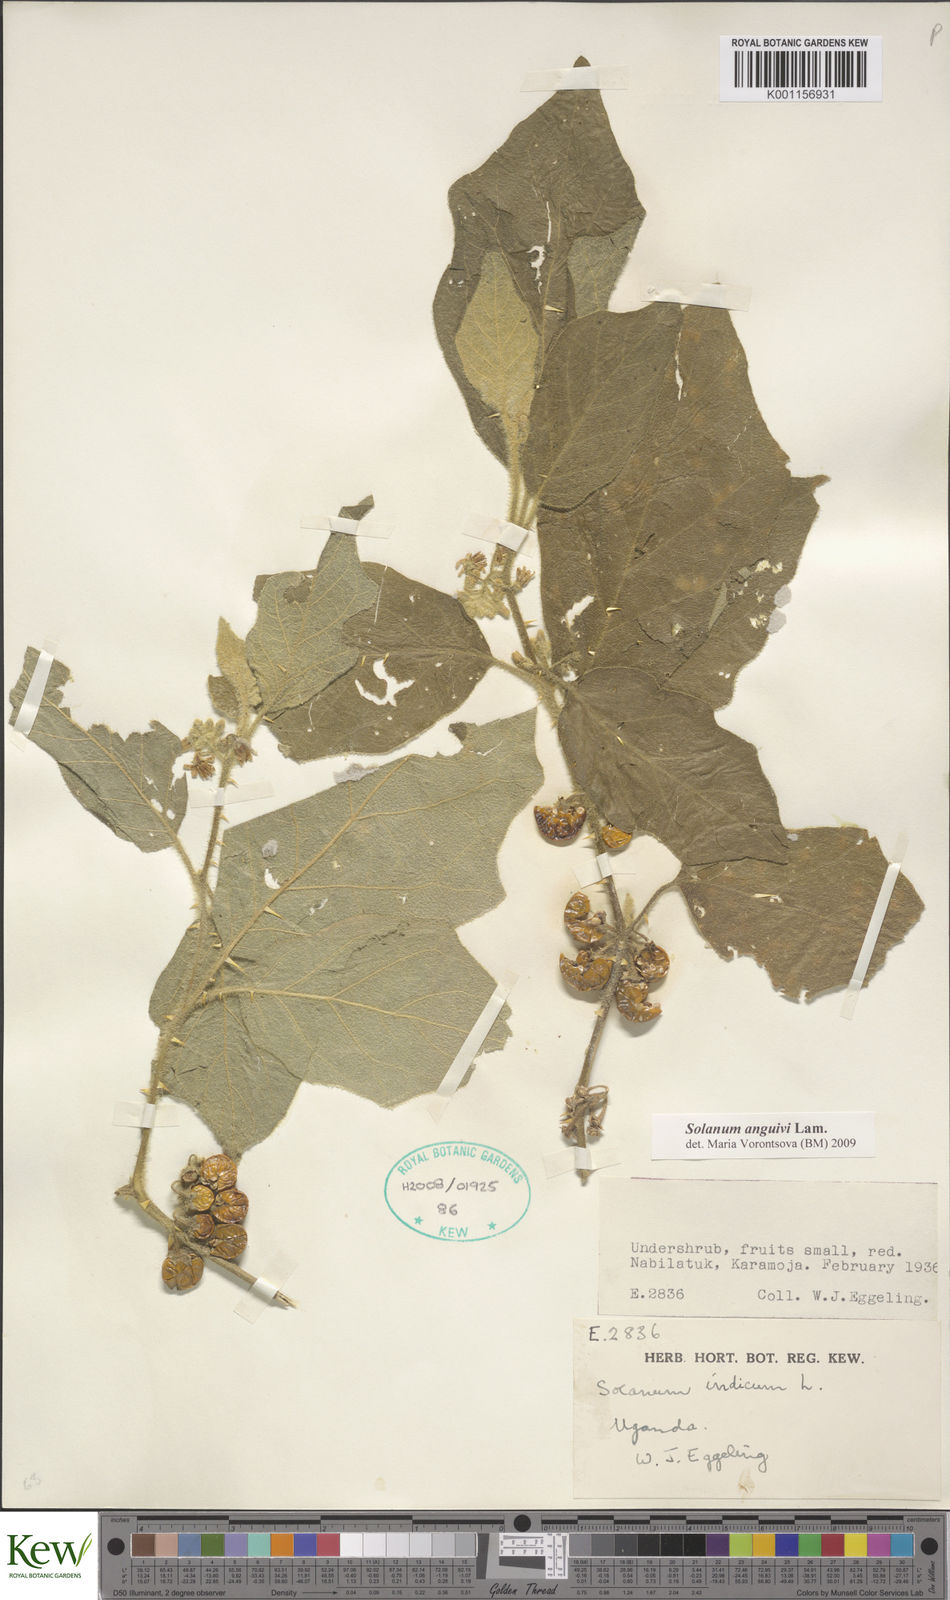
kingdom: Plantae
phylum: Tracheophyta
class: Magnoliopsida
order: Solanales
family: Solanaceae
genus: Solanum
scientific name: Solanum anguivi
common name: Forest bitterberry
